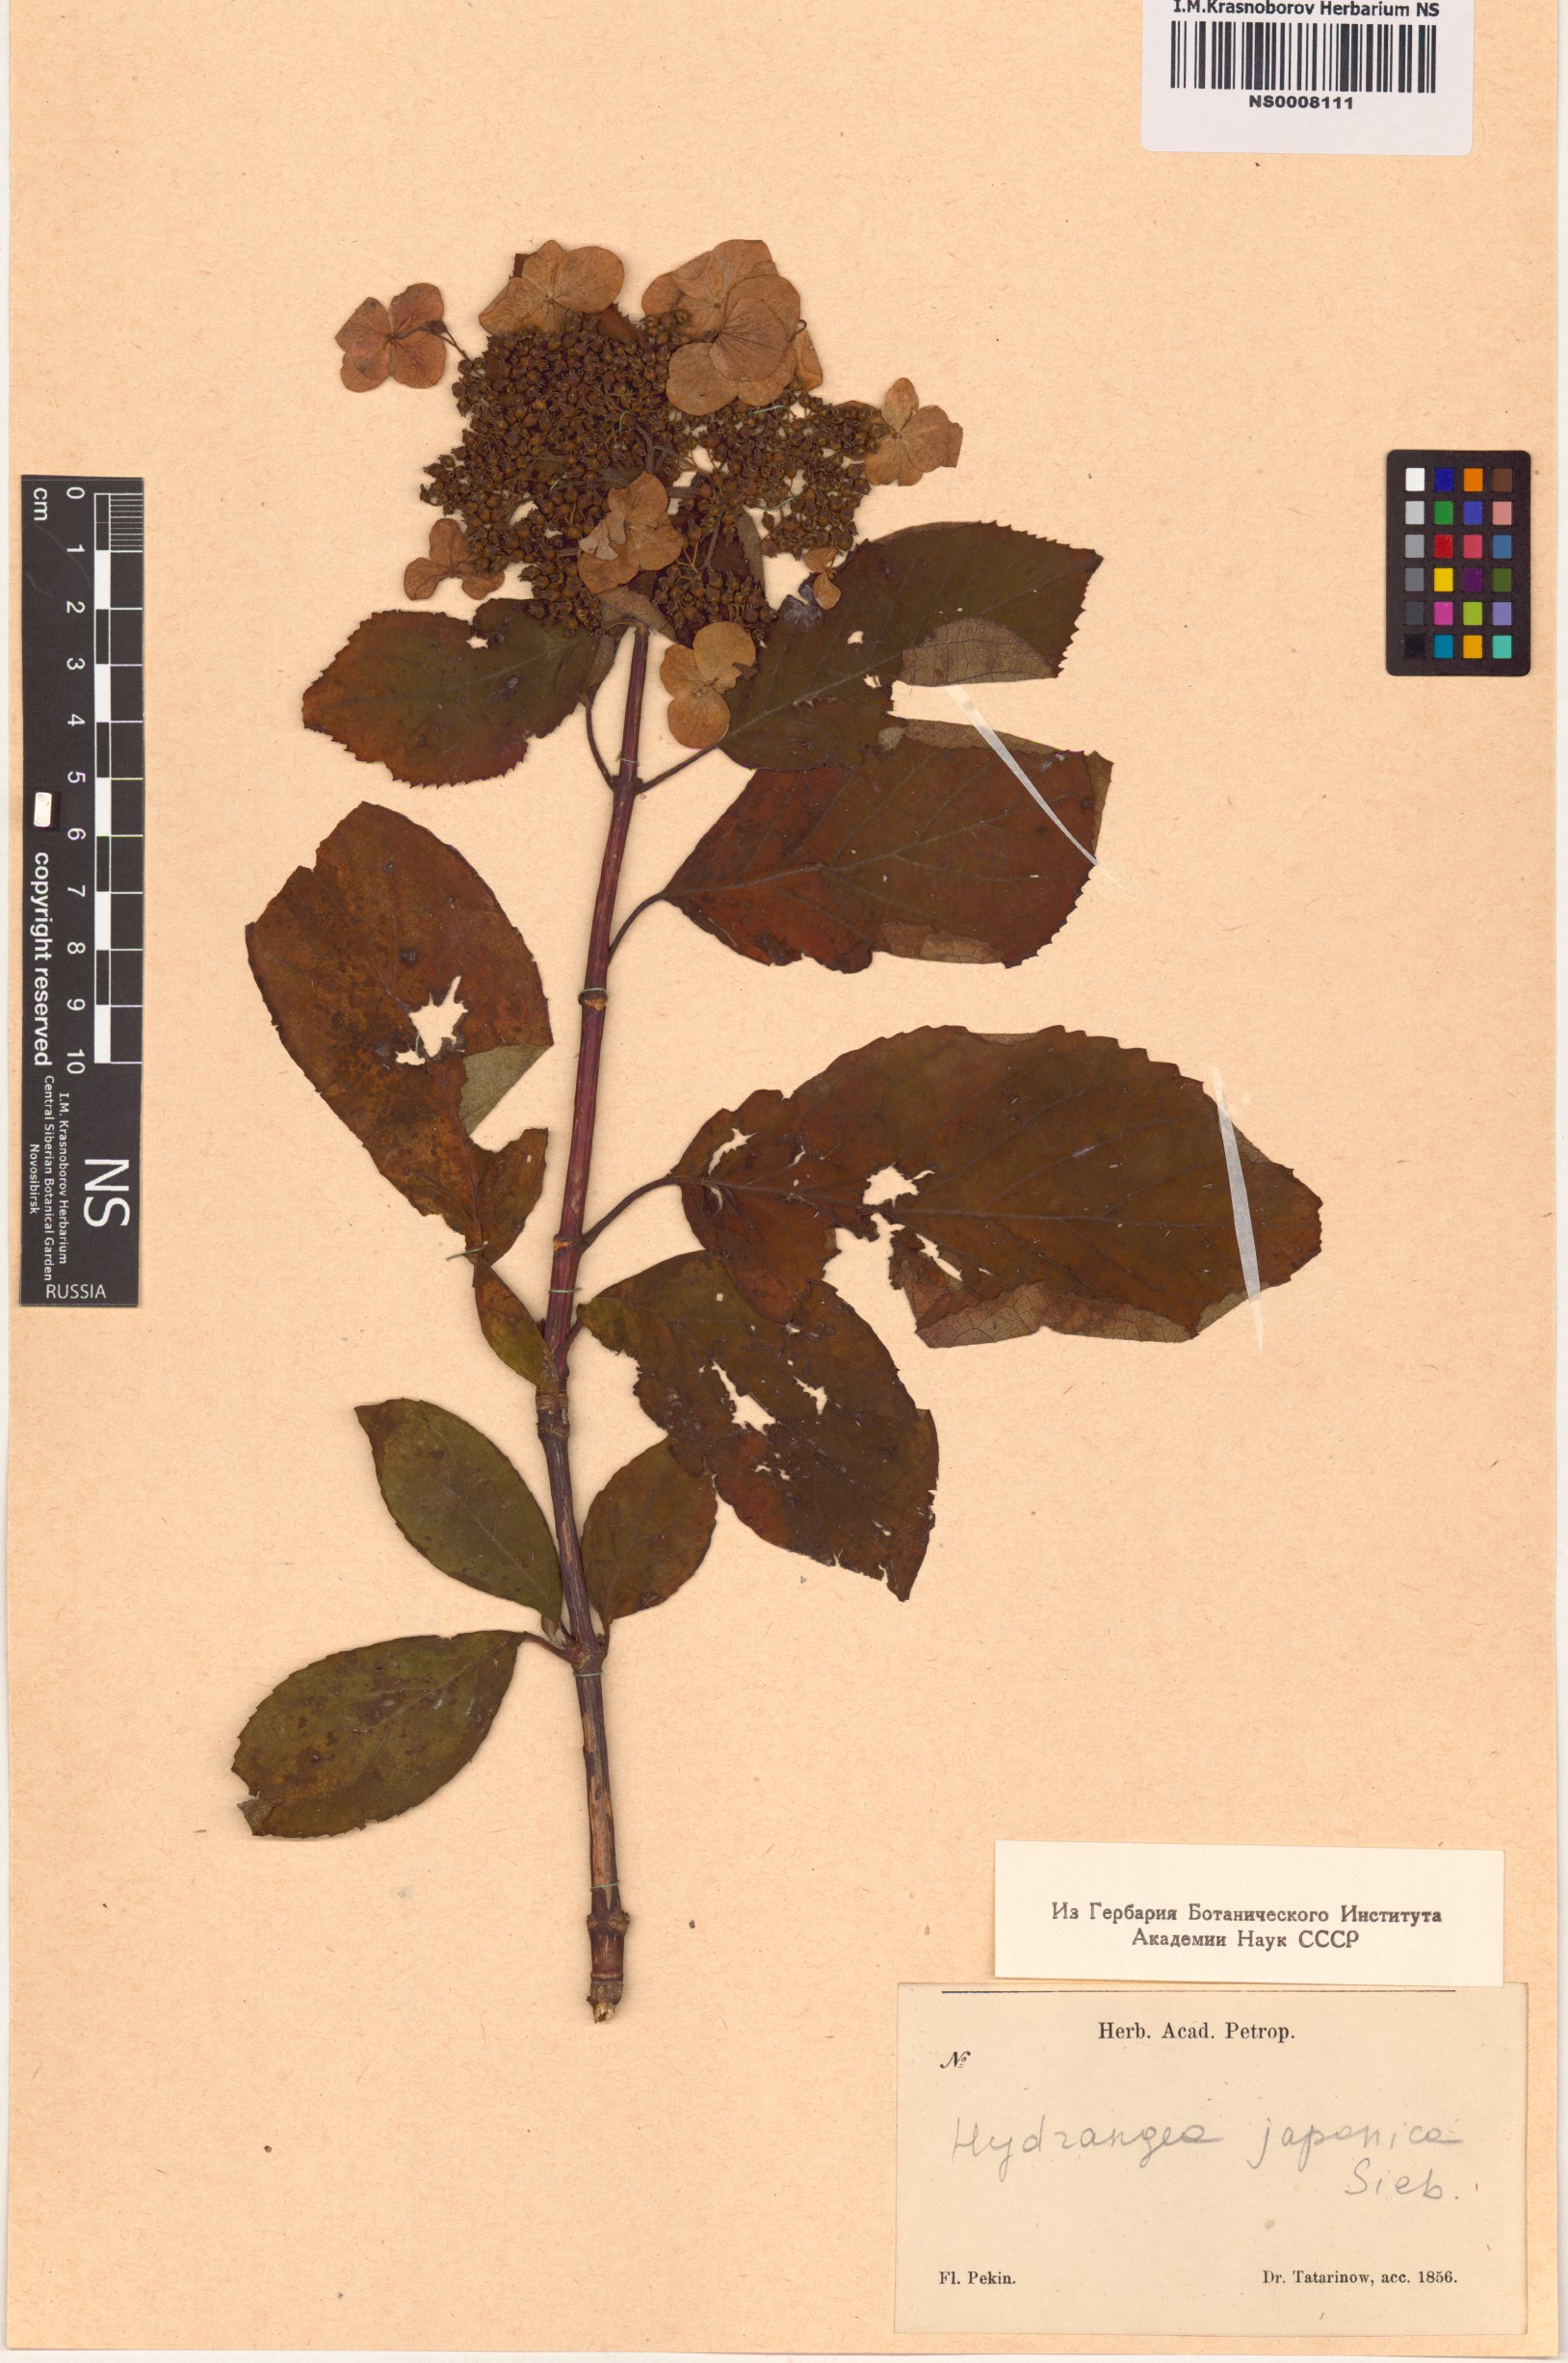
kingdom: Plantae
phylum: Tracheophyta
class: Magnoliopsida
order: Cornales
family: Hydrangeaceae
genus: Hydrangea
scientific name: Hydrangea serrata
